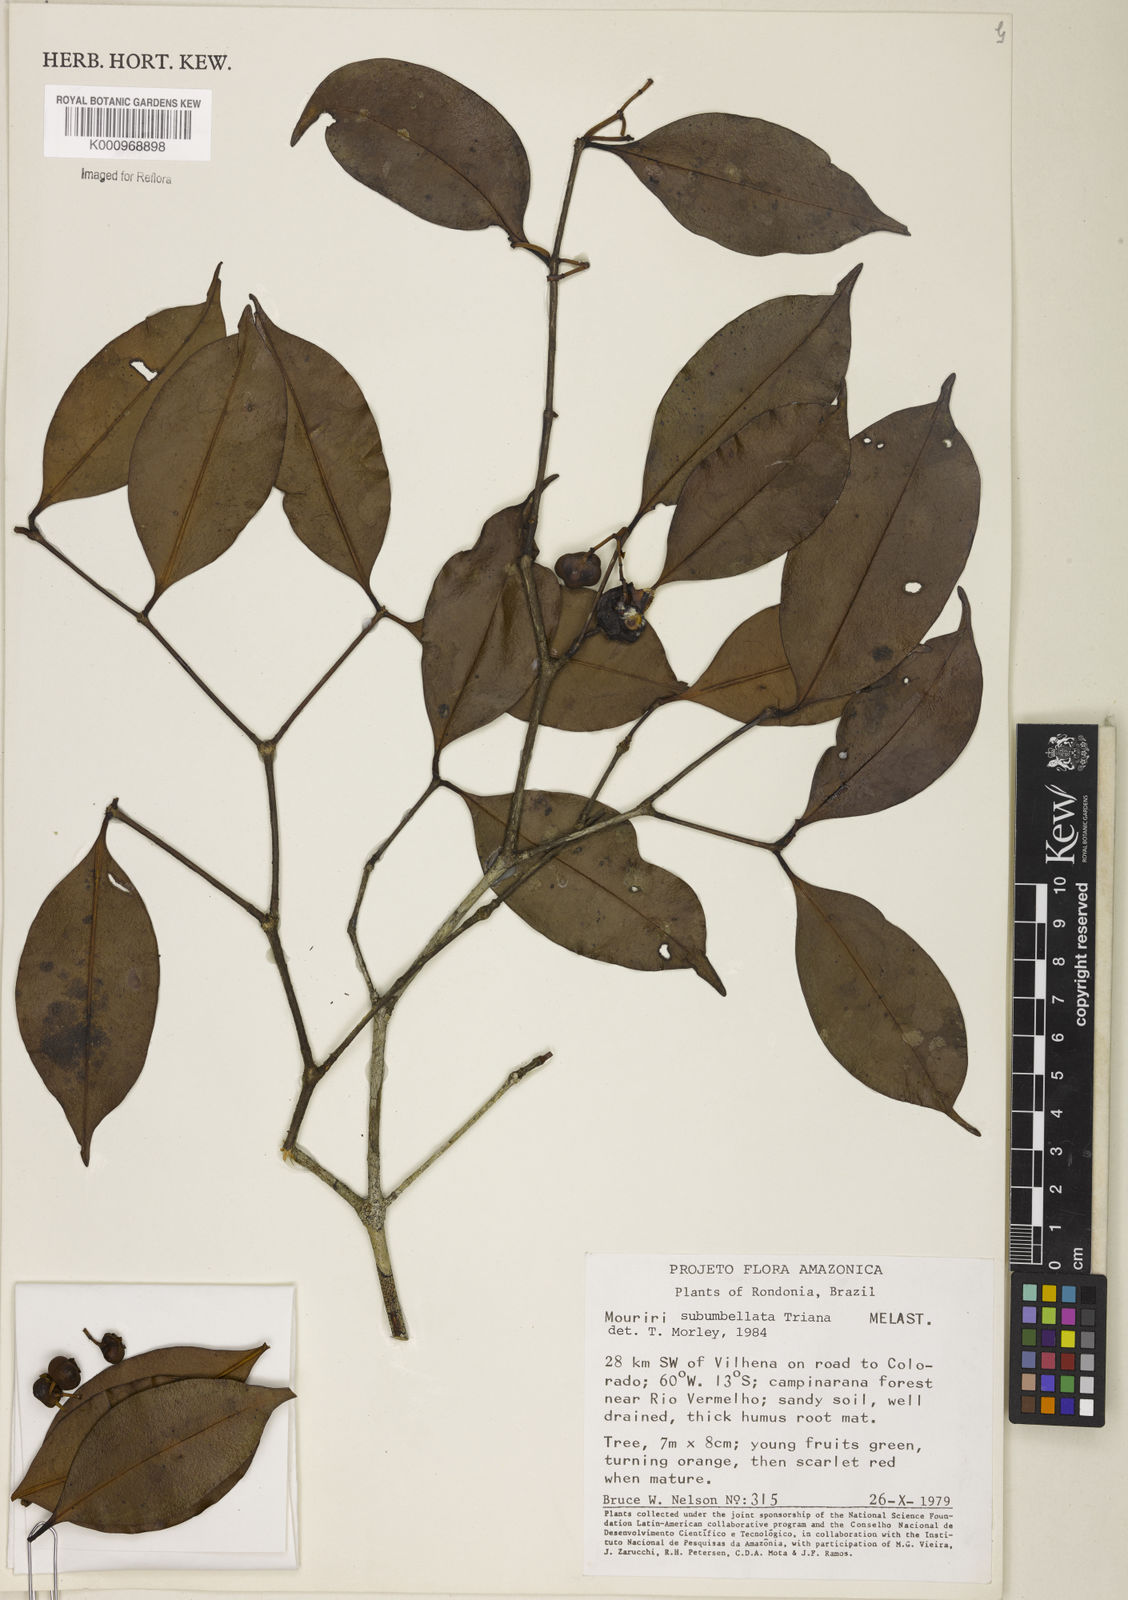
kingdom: Plantae
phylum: Tracheophyta
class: Magnoliopsida
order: Myrtales
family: Melastomataceae
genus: Mouriri
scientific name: Mouriri subumbellata
